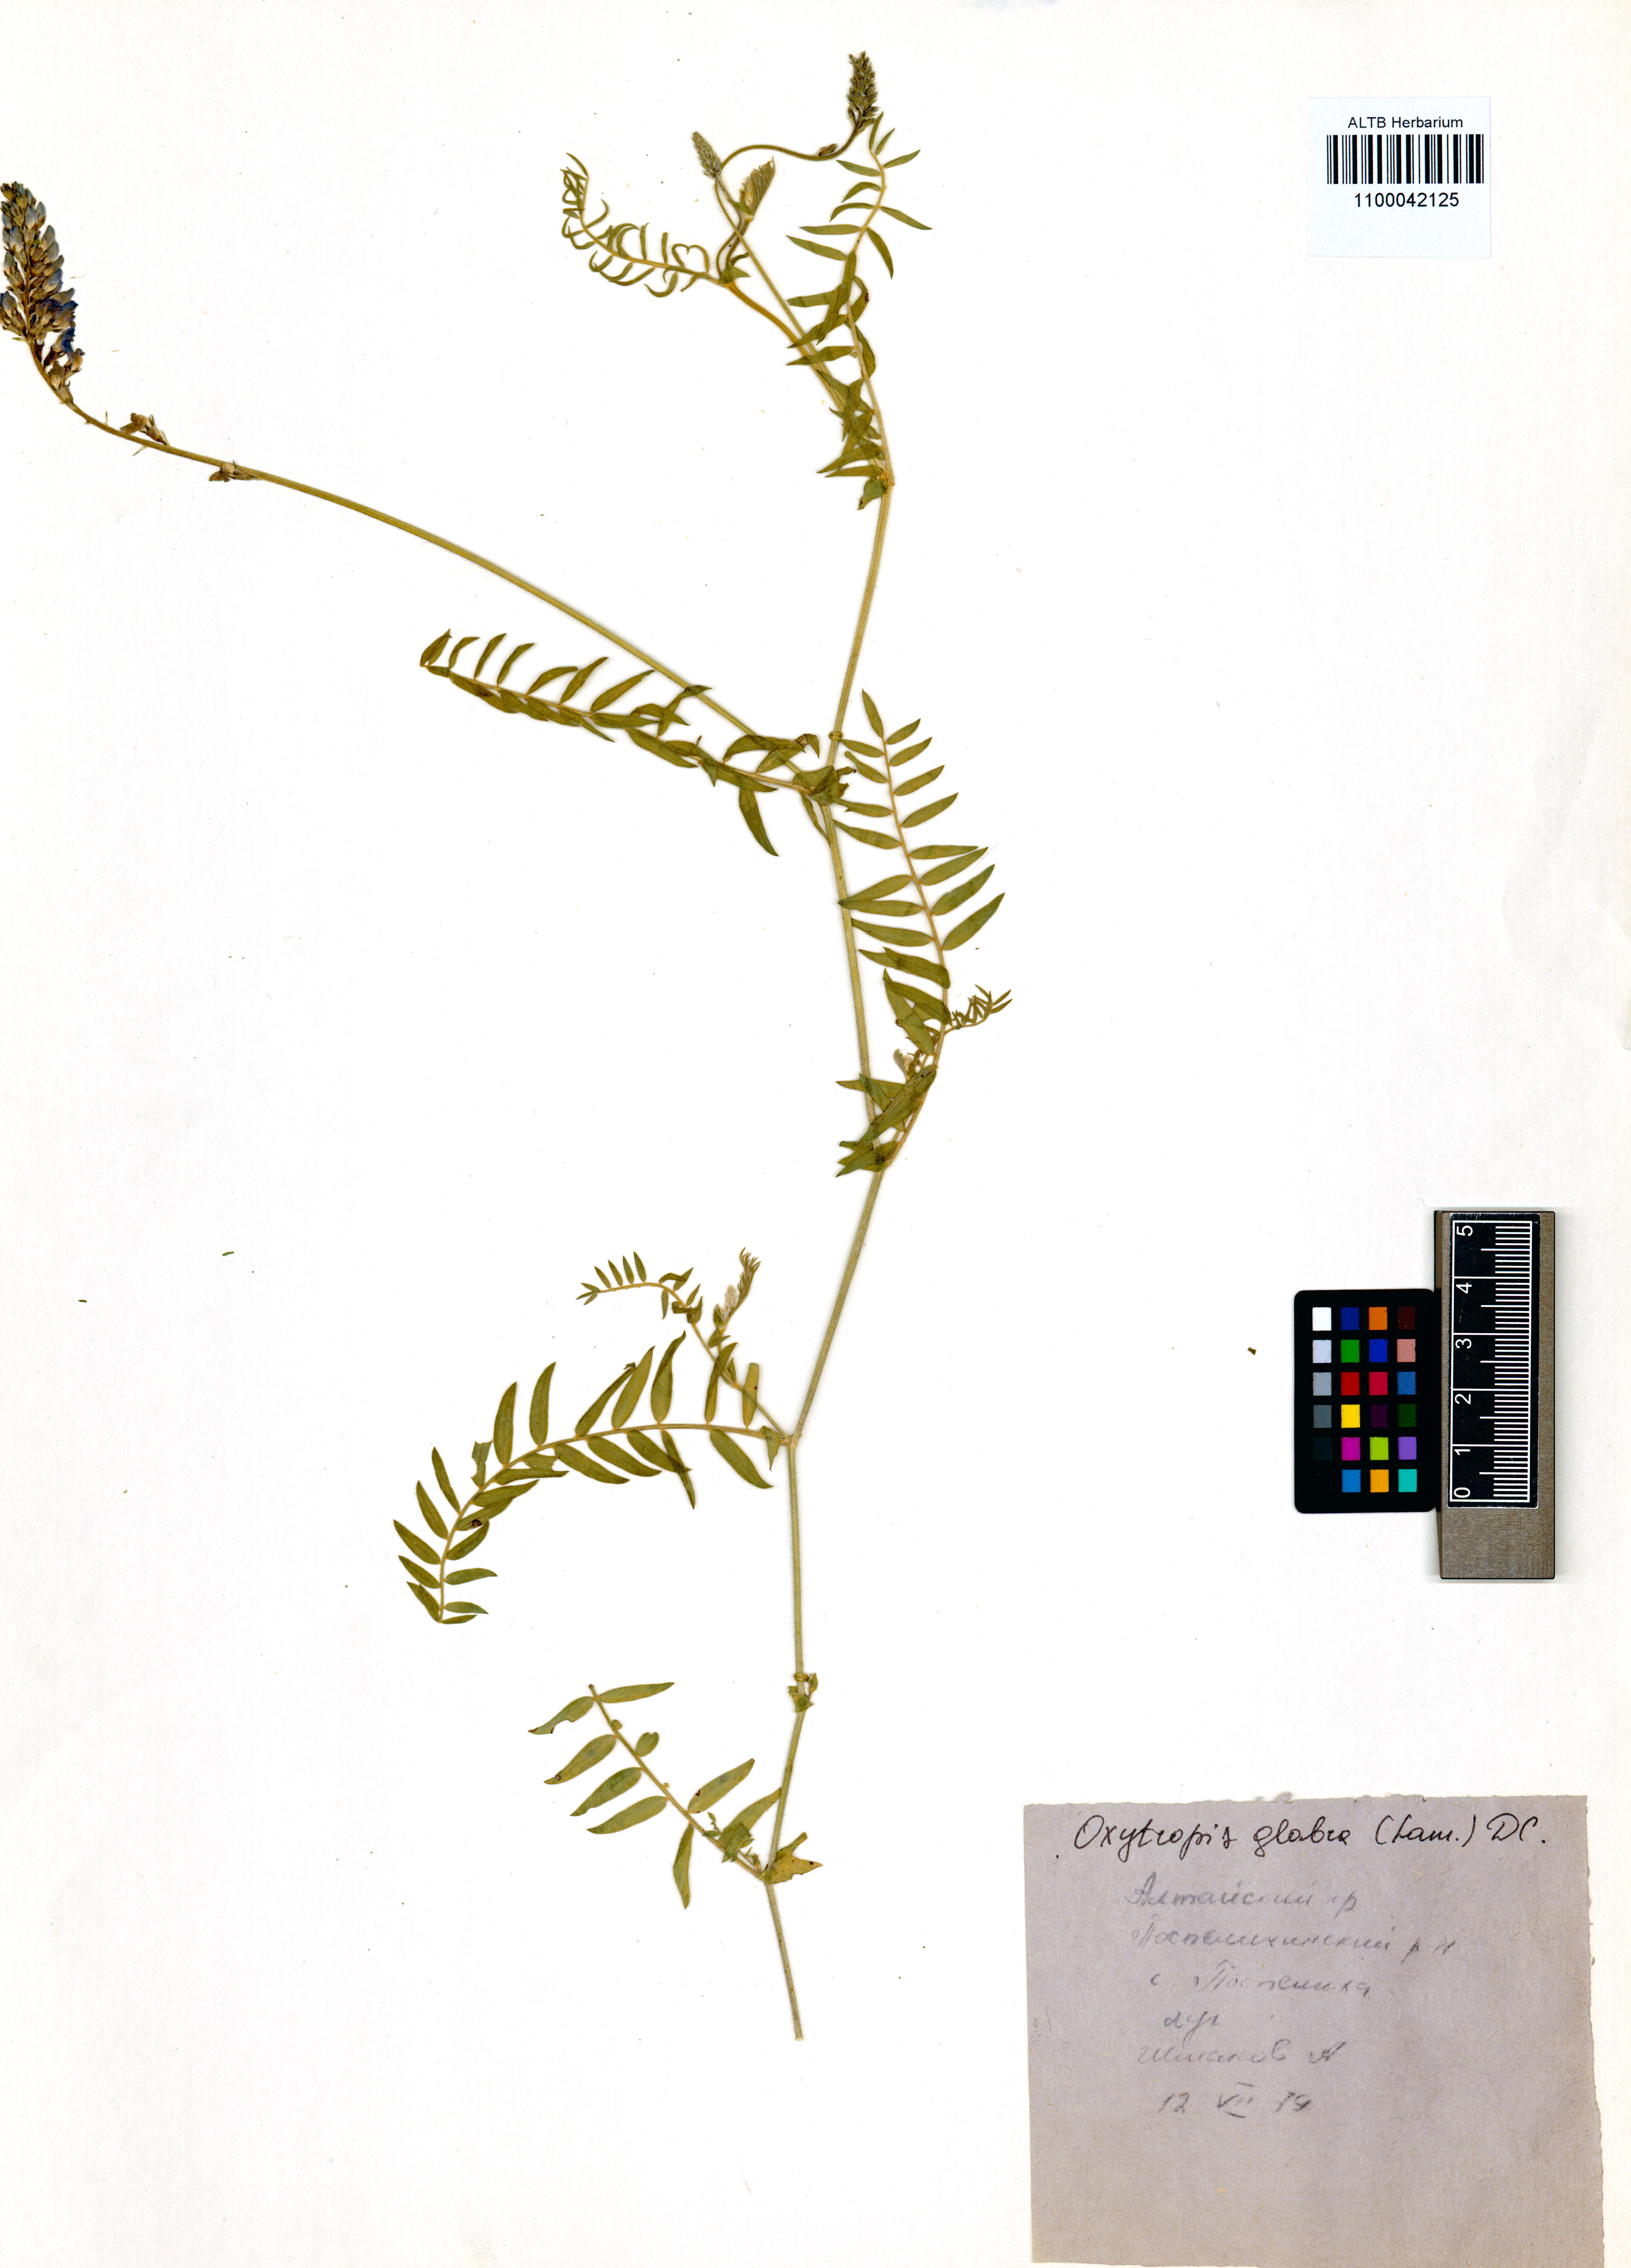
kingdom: Plantae
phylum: Tracheophyta
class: Magnoliopsida
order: Fabales
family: Fabaceae
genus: Oxytropis
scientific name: Oxytropis glabra
